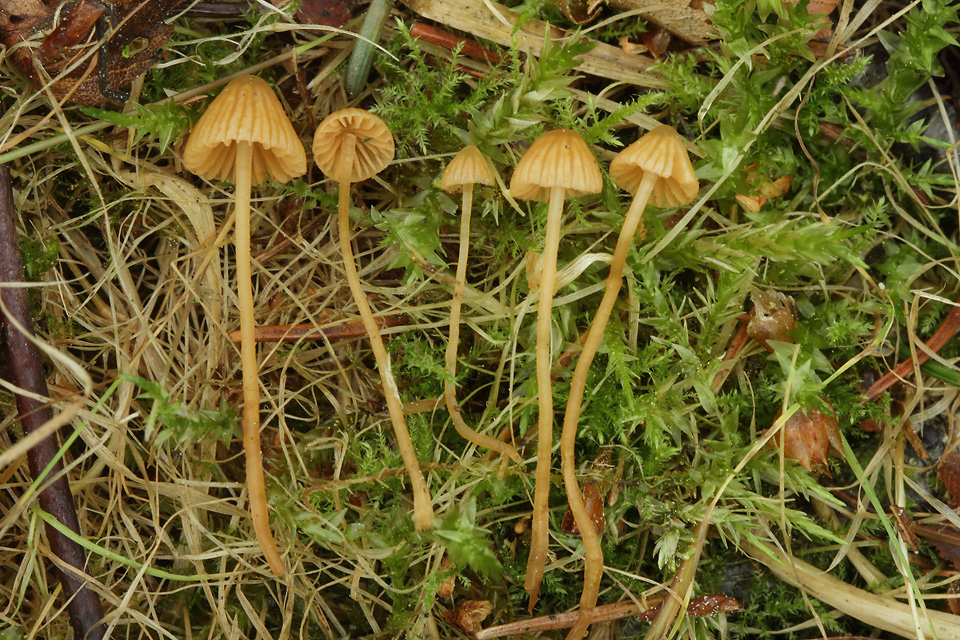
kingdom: Fungi
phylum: Basidiomycota
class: Agaricomycetes
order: Agaricales
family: Hymenogastraceae
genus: Galerina
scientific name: Galerina atkinsoniana
